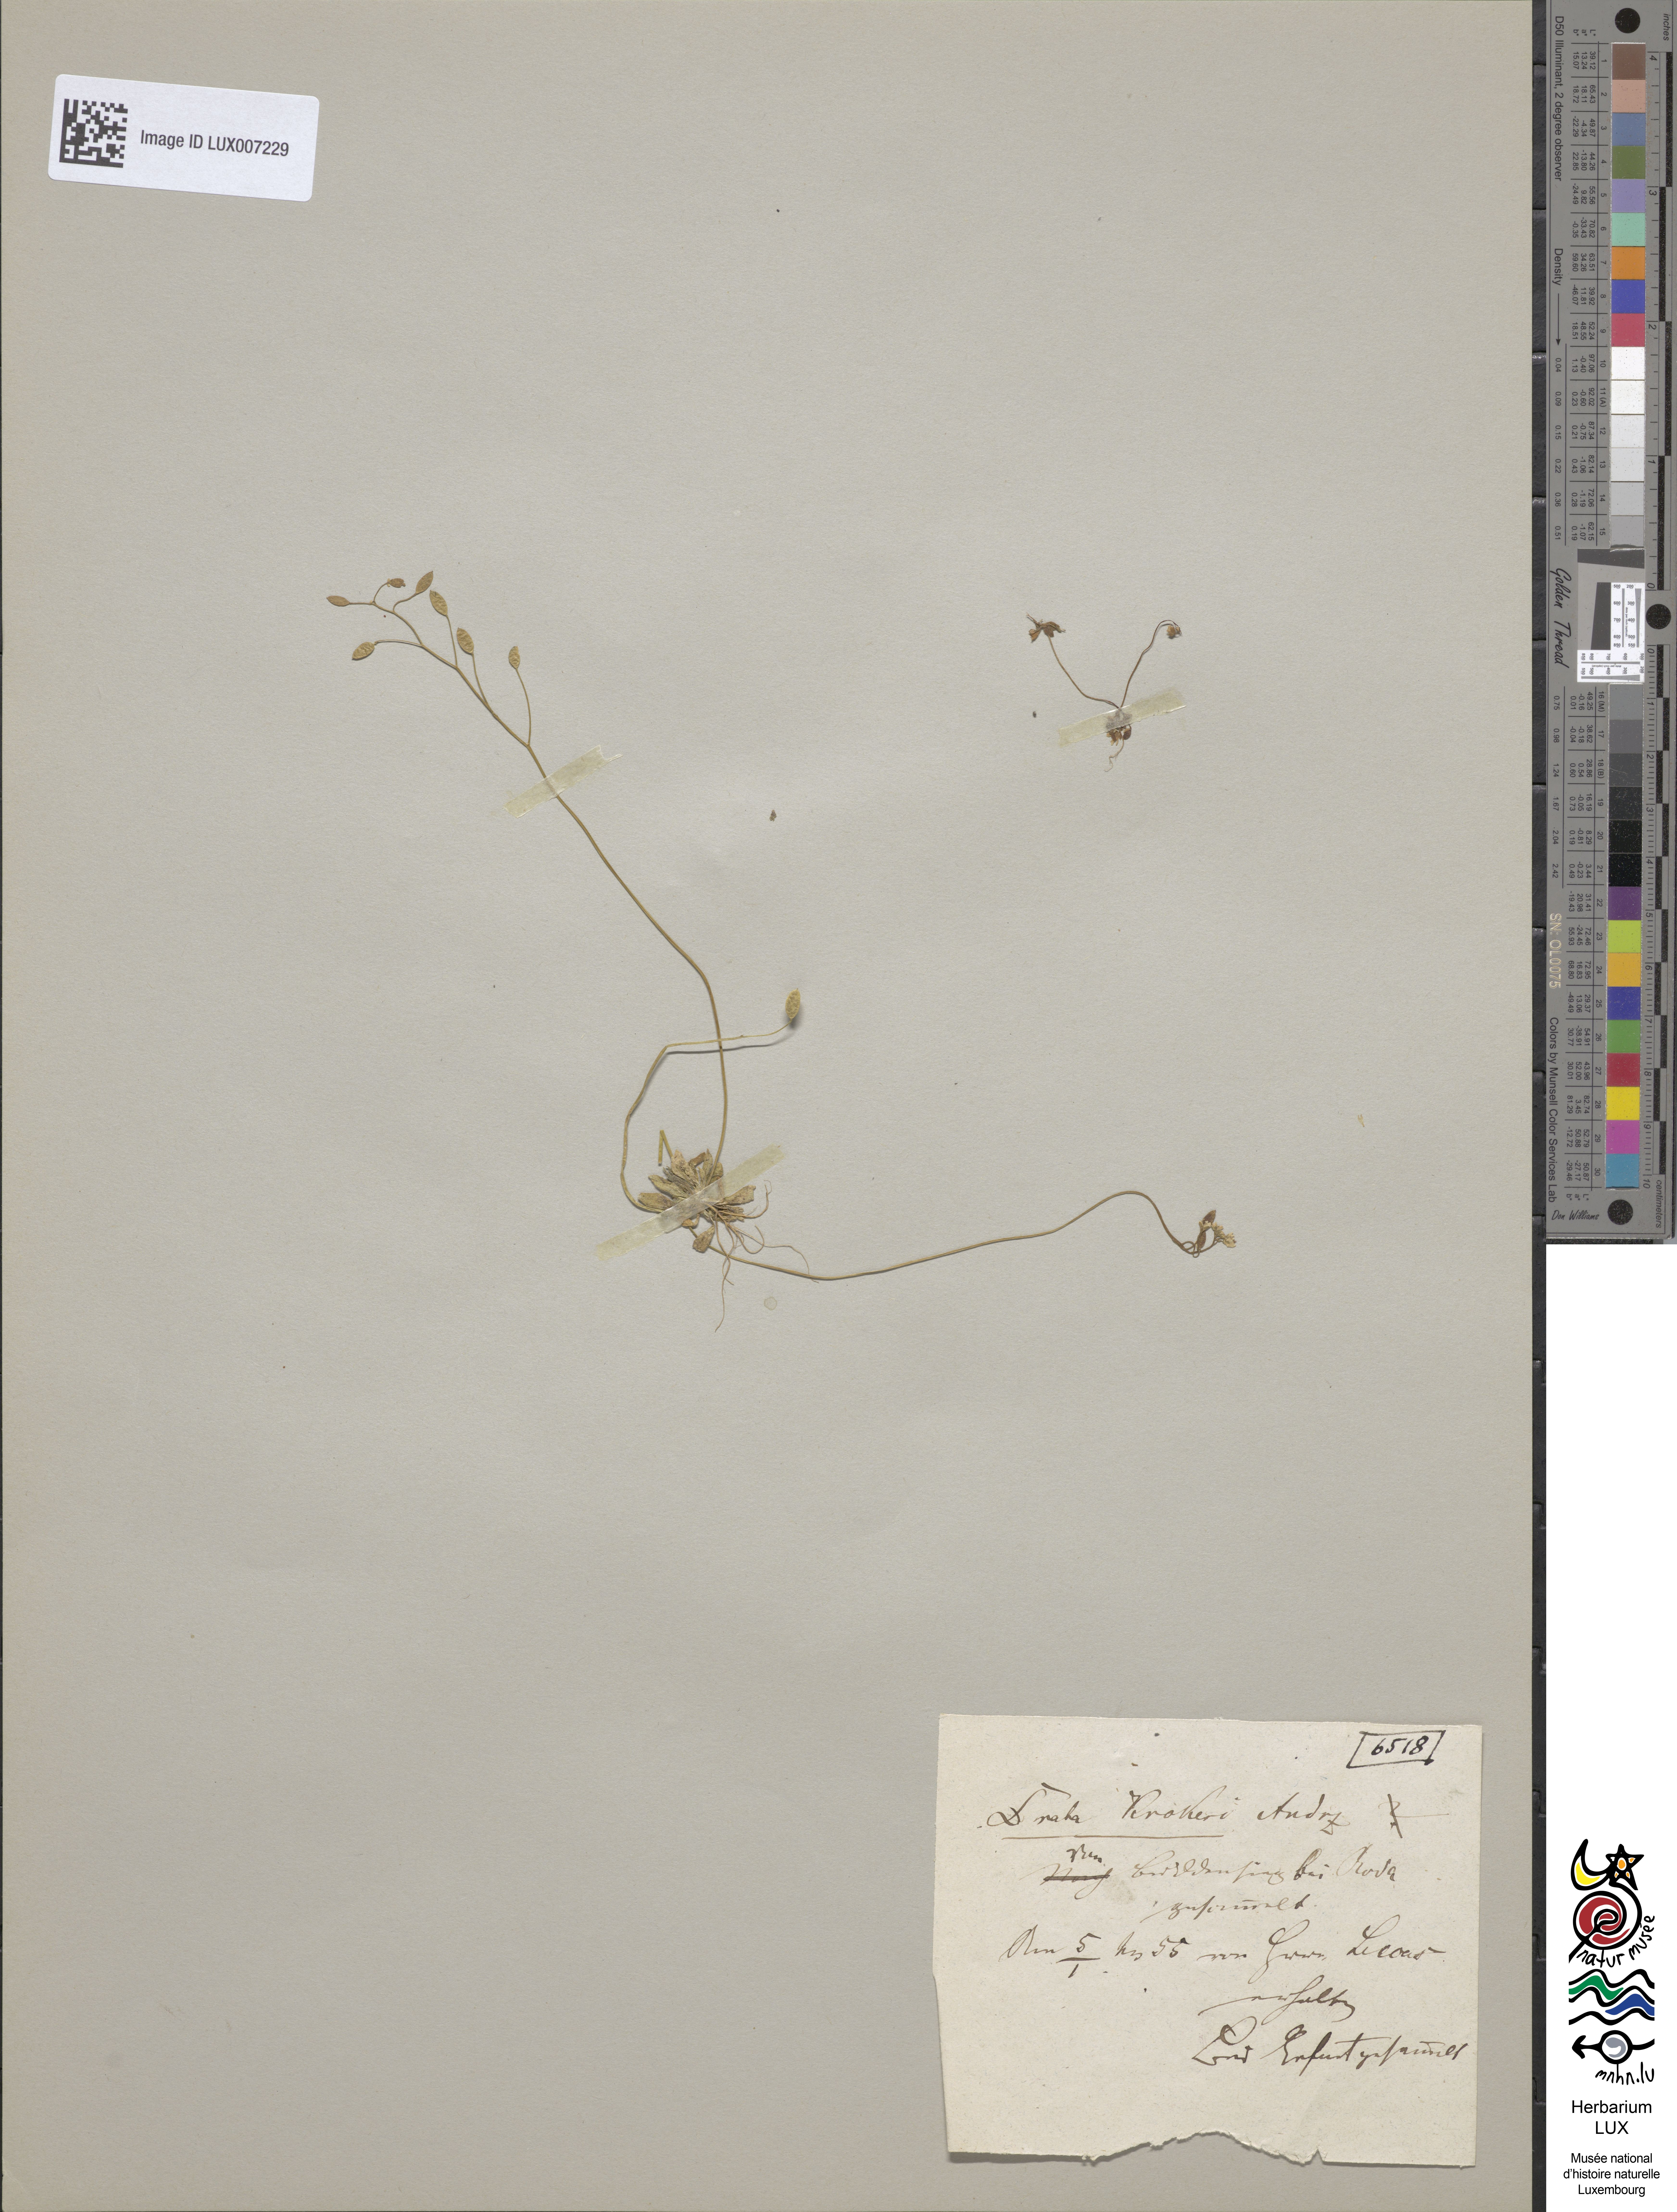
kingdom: Plantae
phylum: Tracheophyta
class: Magnoliopsida
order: Brassicales
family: Brassicaceae
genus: Draba
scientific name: Draba verna
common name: Spring draba
